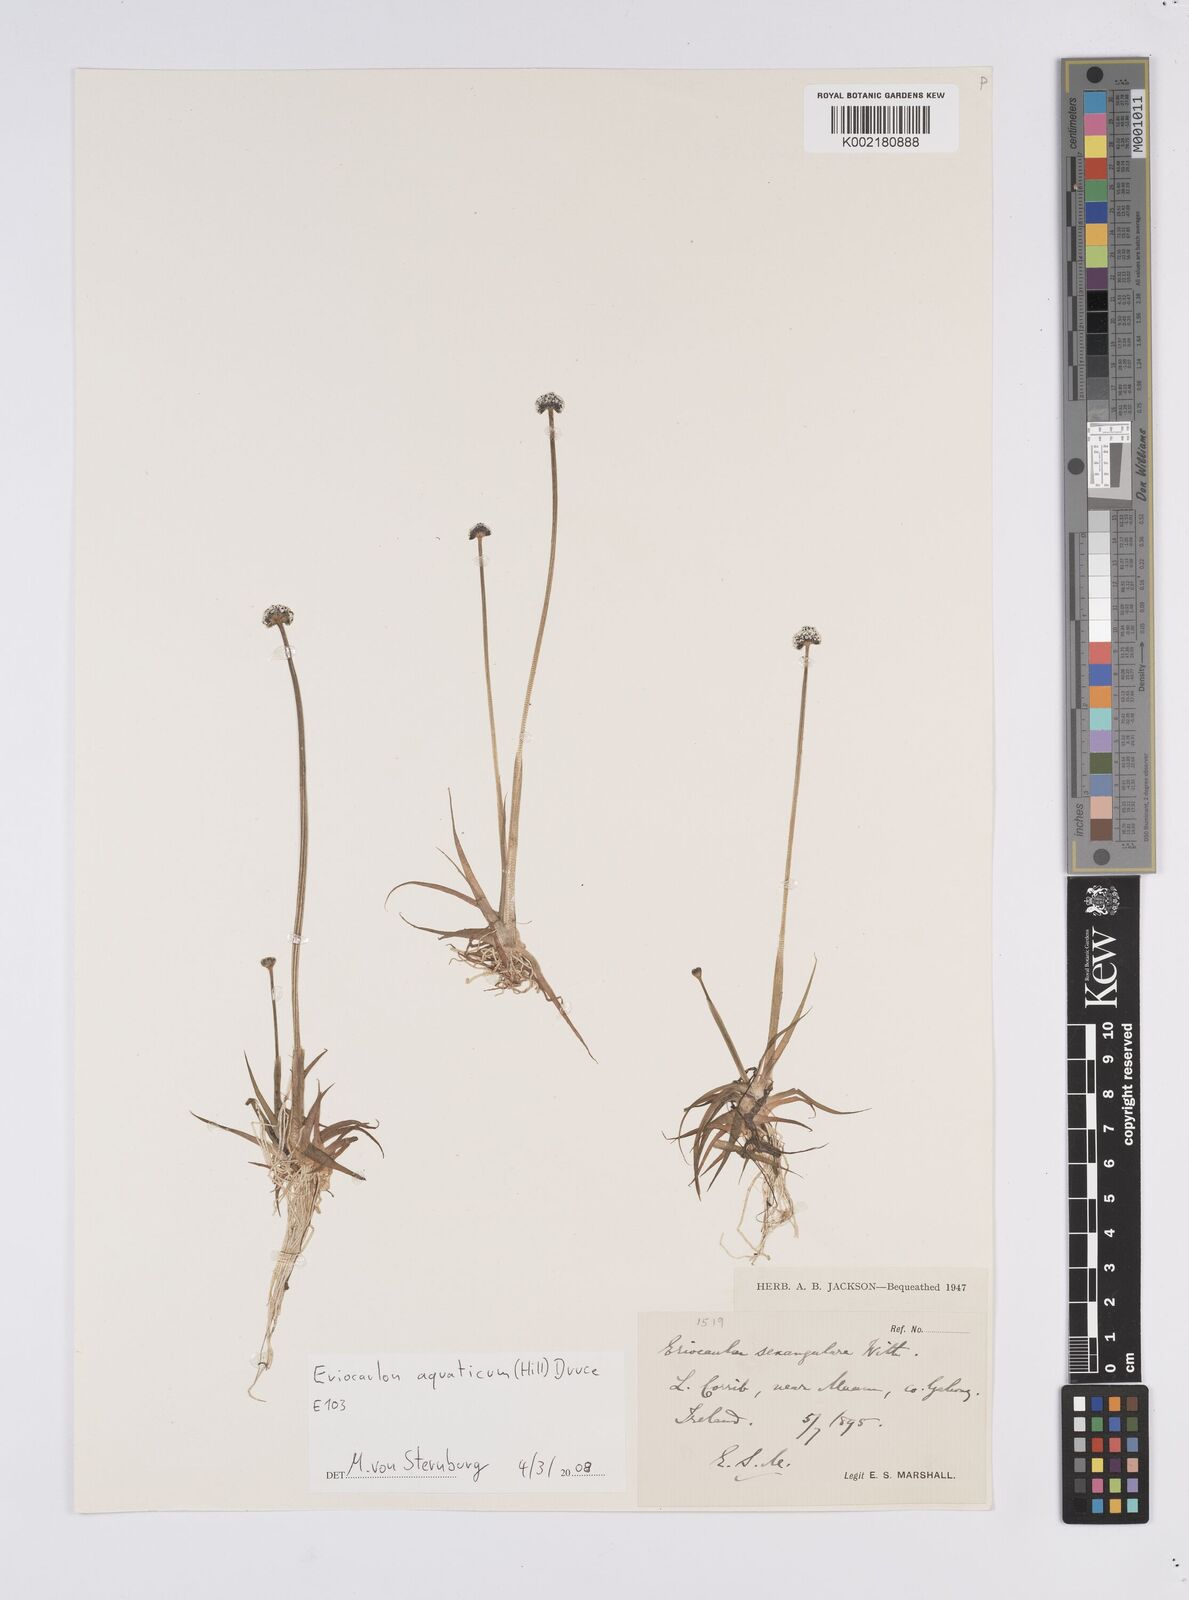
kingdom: Plantae
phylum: Tracheophyta
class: Liliopsida
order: Poales
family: Eriocaulaceae
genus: Eriocaulon
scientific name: Eriocaulon aquaticum
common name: Pipewort
